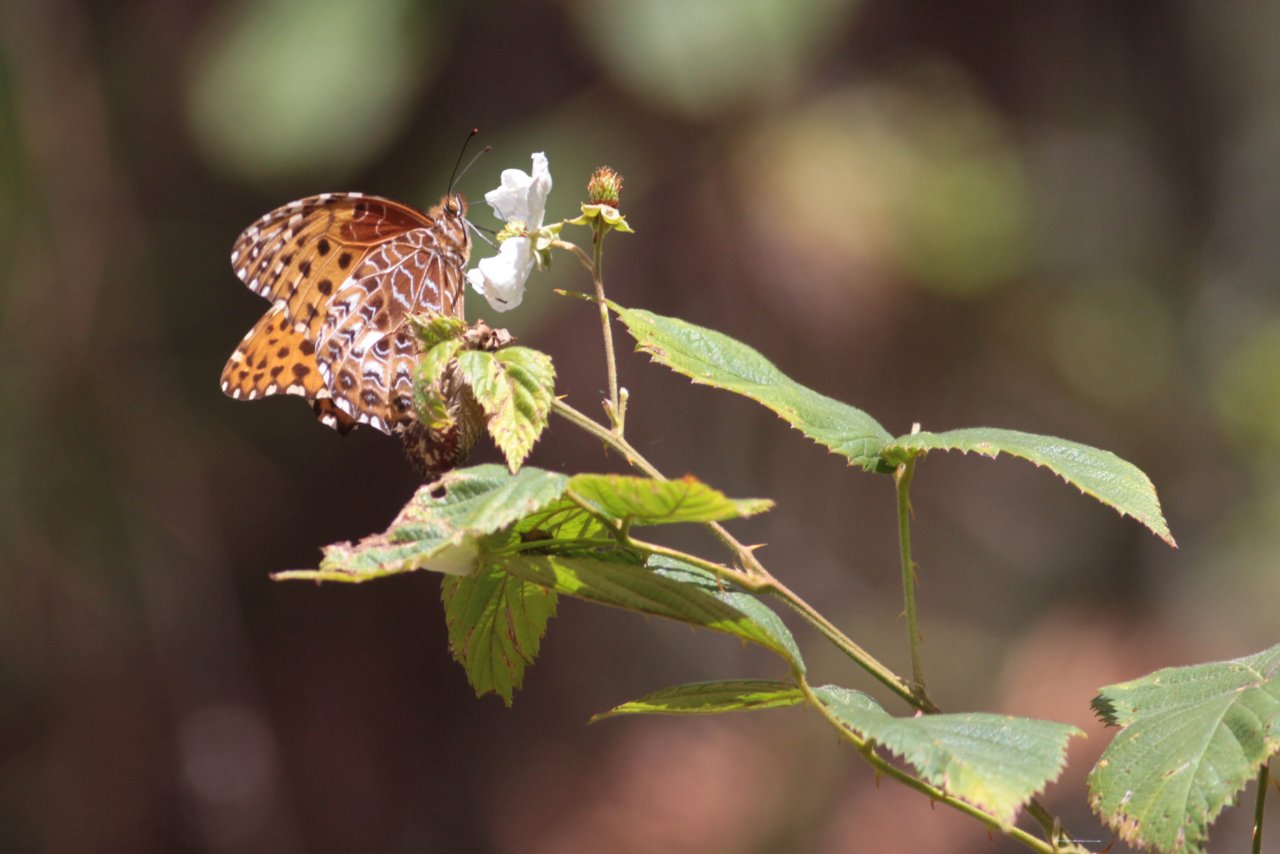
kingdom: Animalia
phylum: Arthropoda
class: Insecta
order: Lepidoptera
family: Nymphalidae
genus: Anetia
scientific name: Anetia briarea
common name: Many-spotted King
